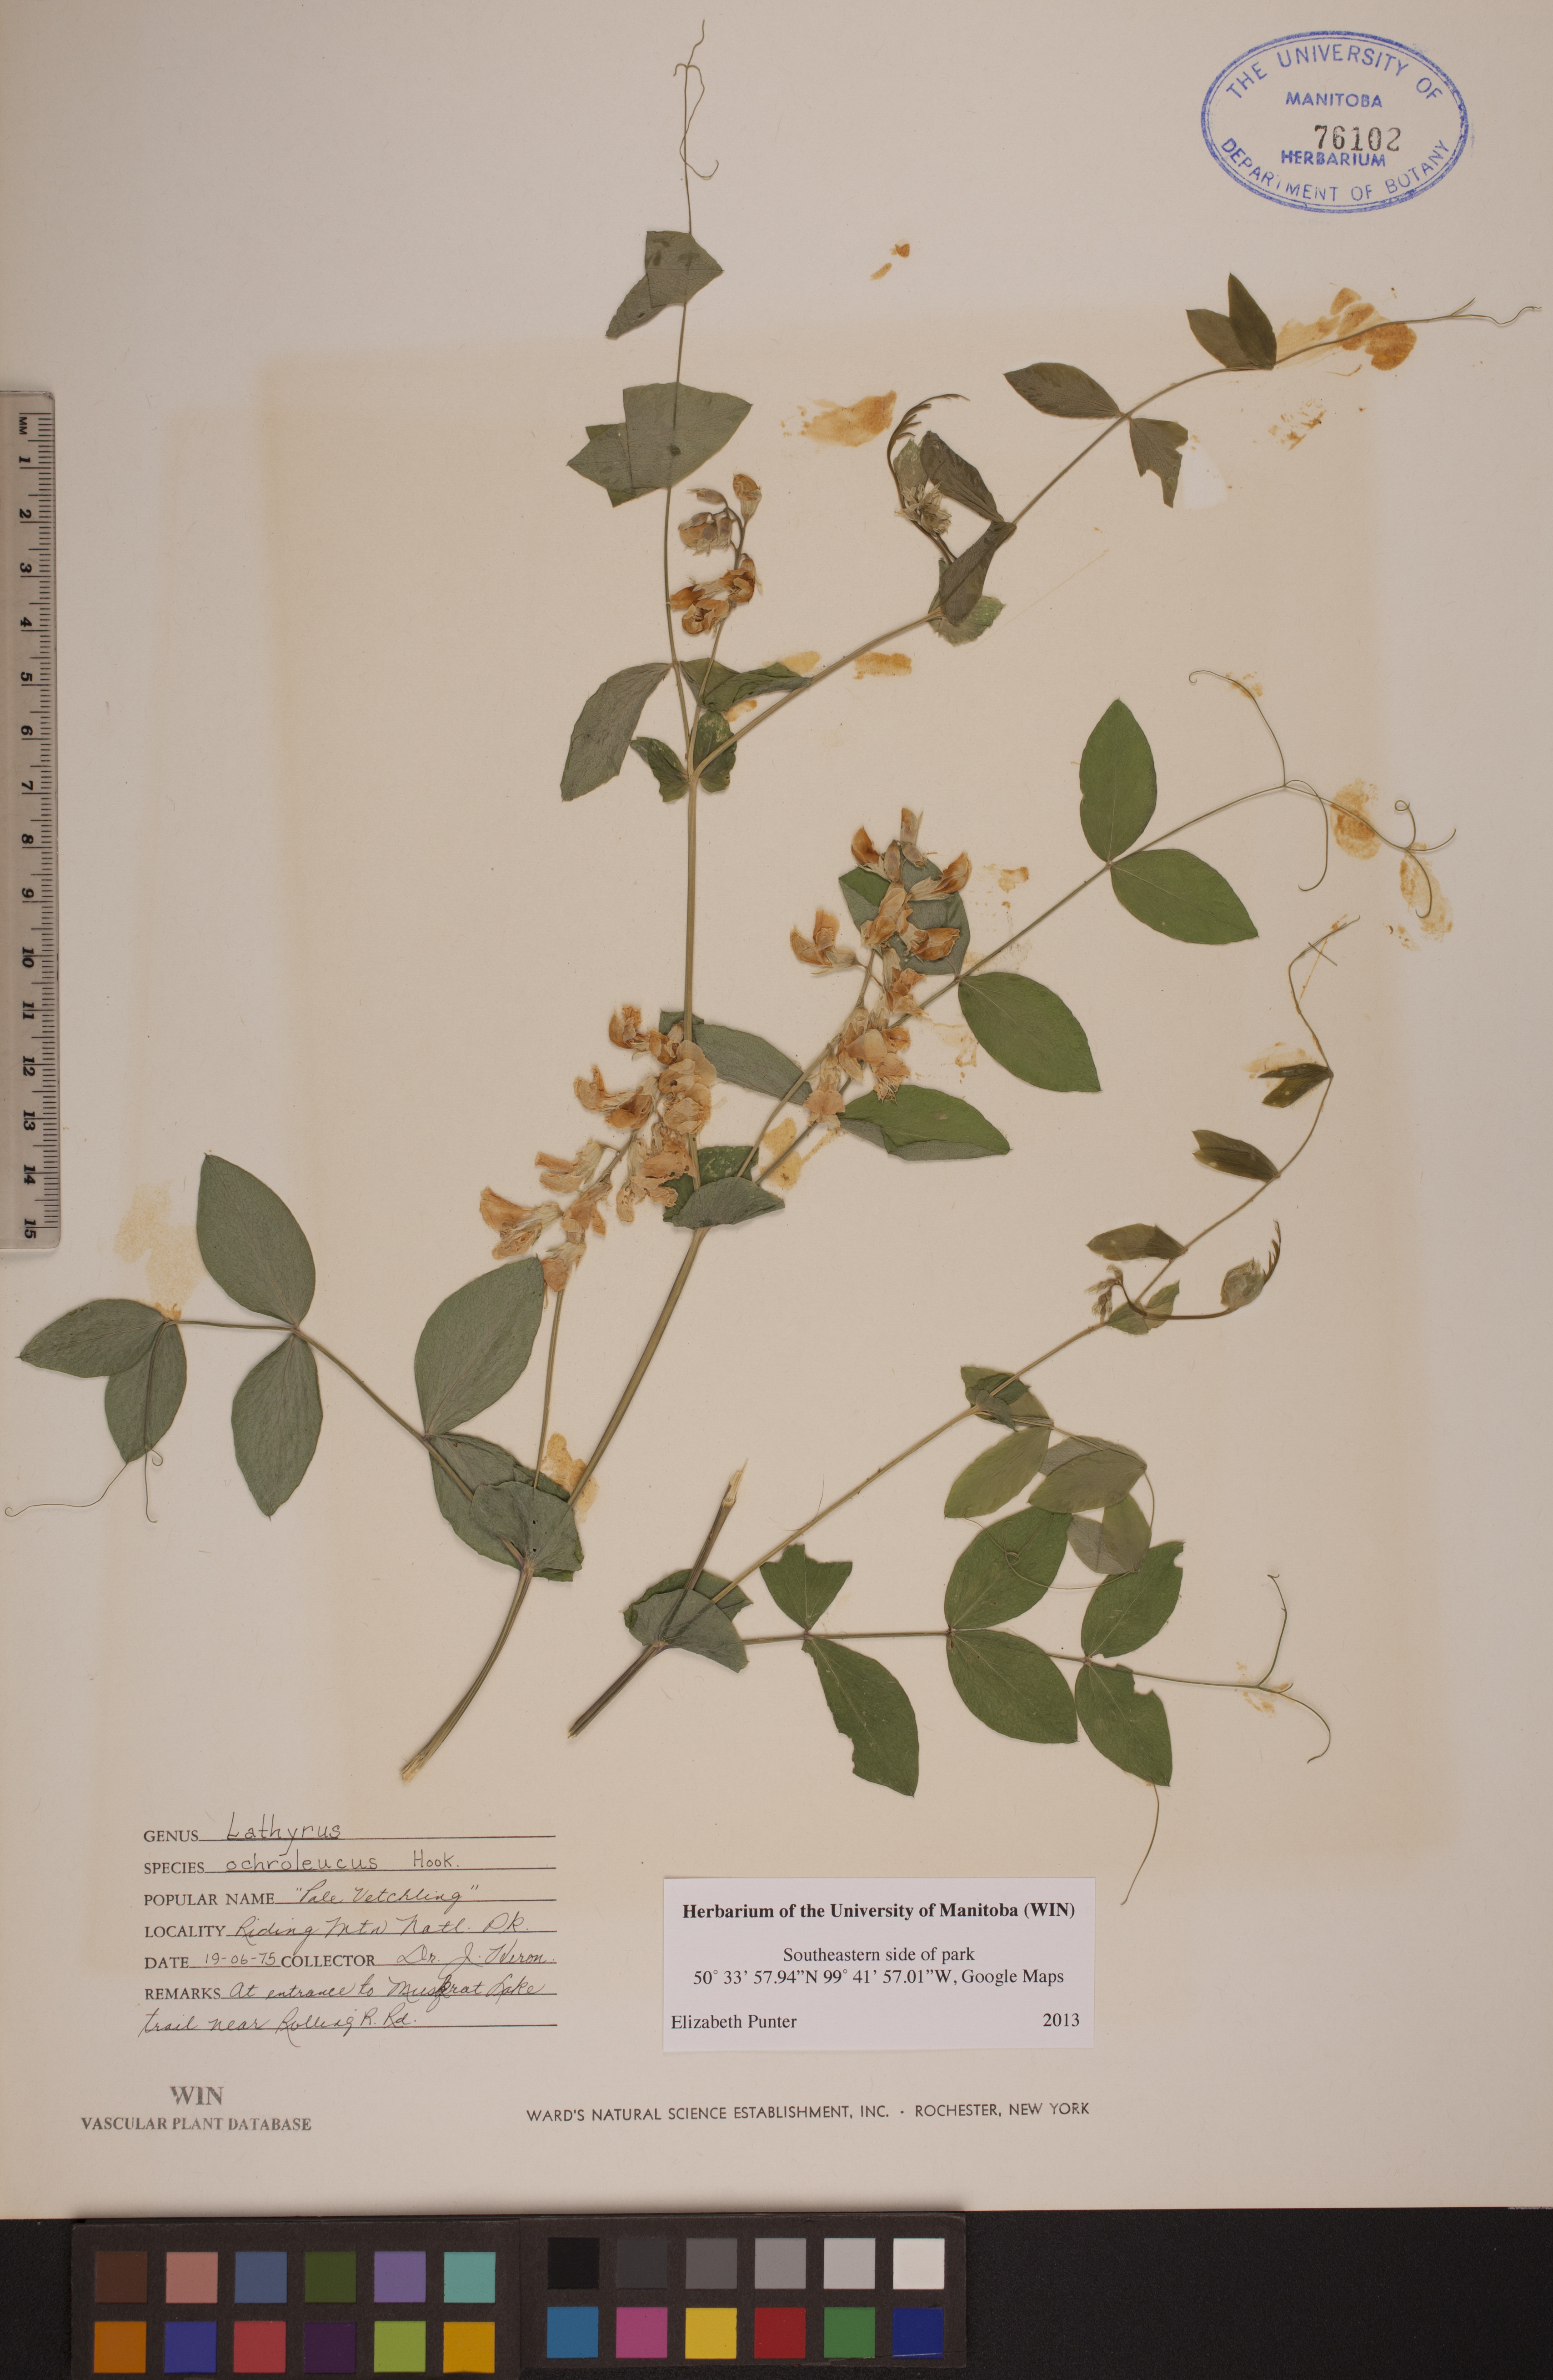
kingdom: Plantae
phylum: Tracheophyta
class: Magnoliopsida
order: Fabales
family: Fabaceae
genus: Lathyrus
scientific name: Lathyrus ochroleucus
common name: Pale vetchling
